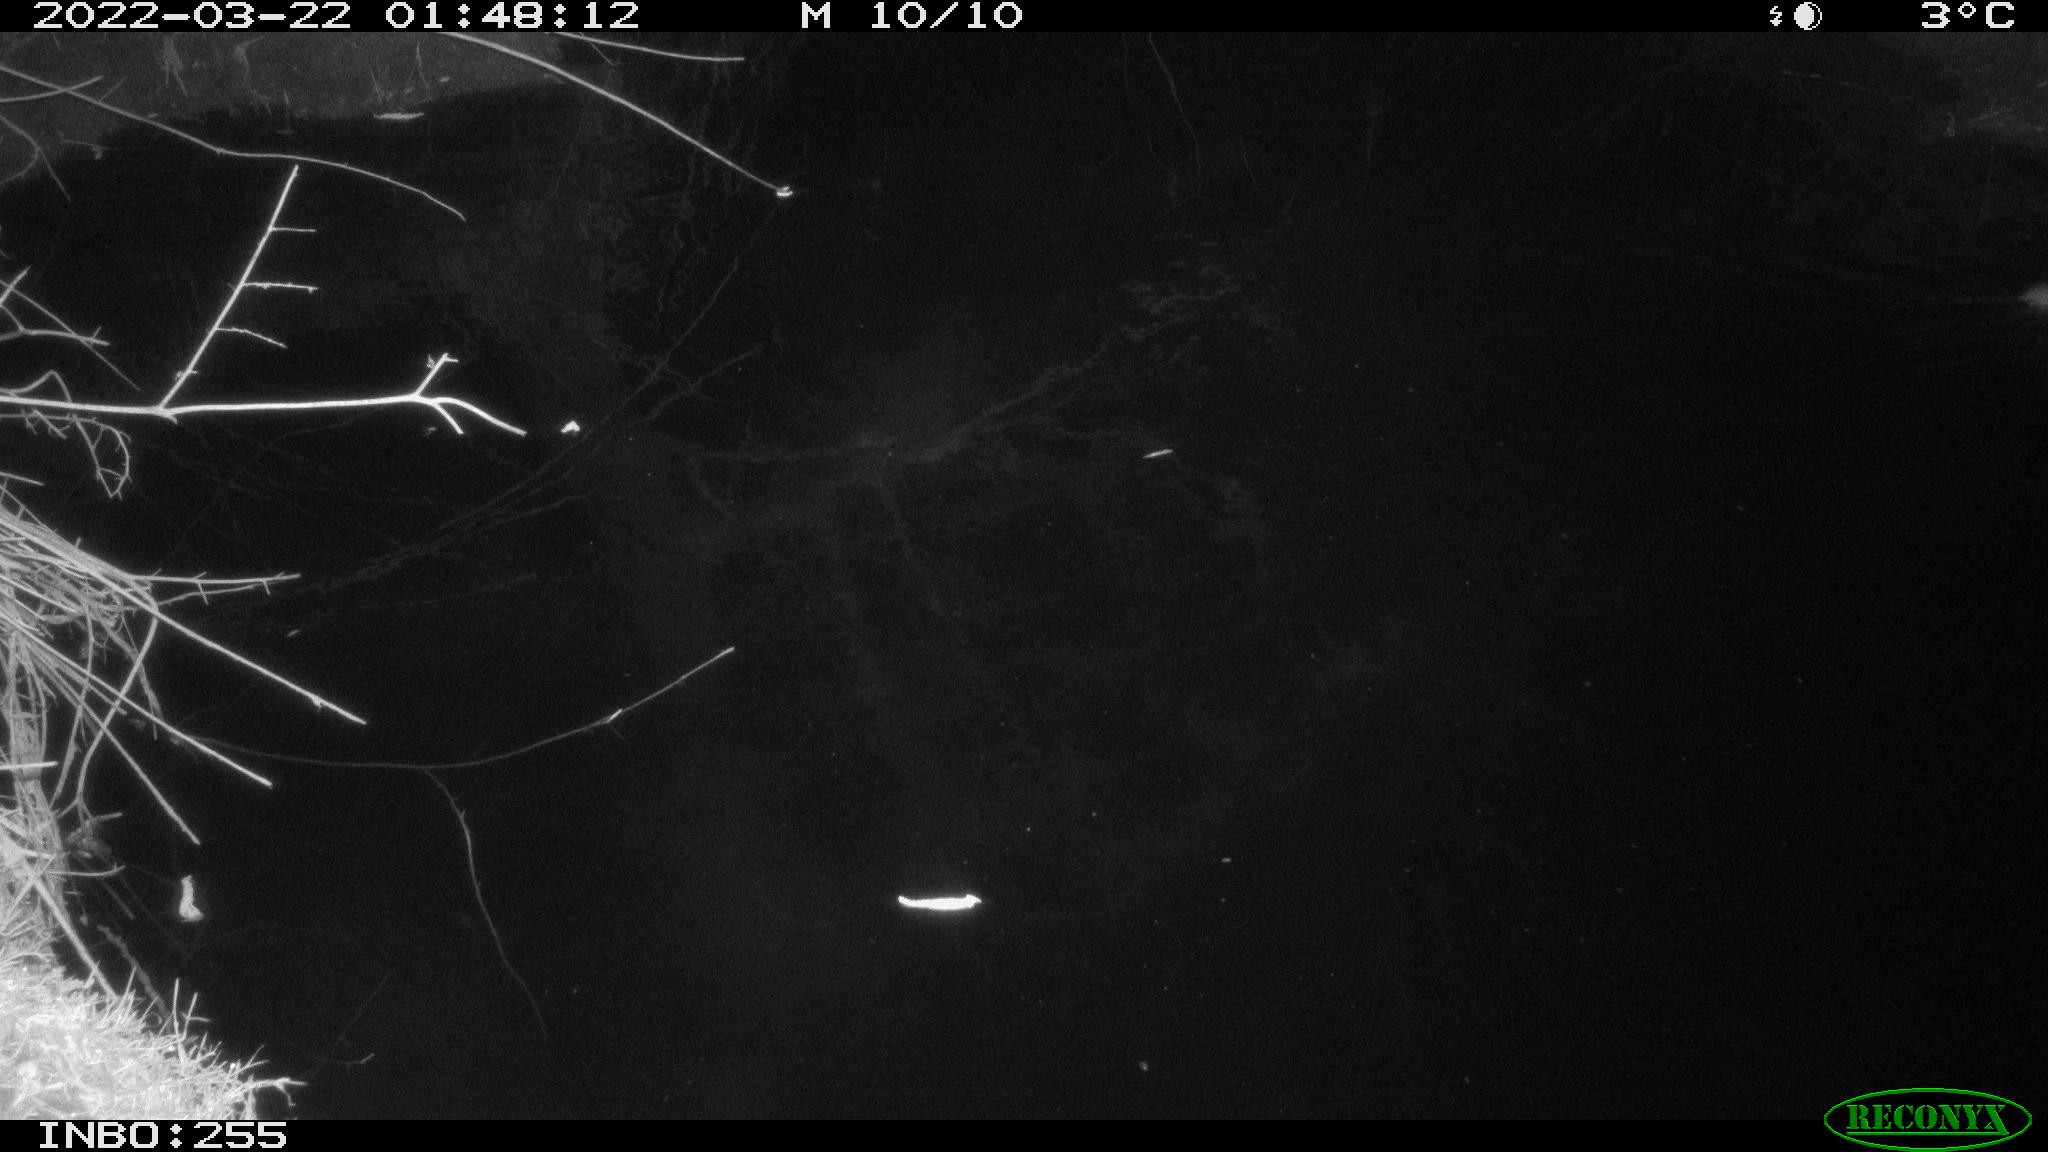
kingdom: Animalia
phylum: Chordata
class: Mammalia
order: Rodentia
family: Muridae
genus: Rattus
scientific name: Rattus norvegicus
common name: Brown rat
